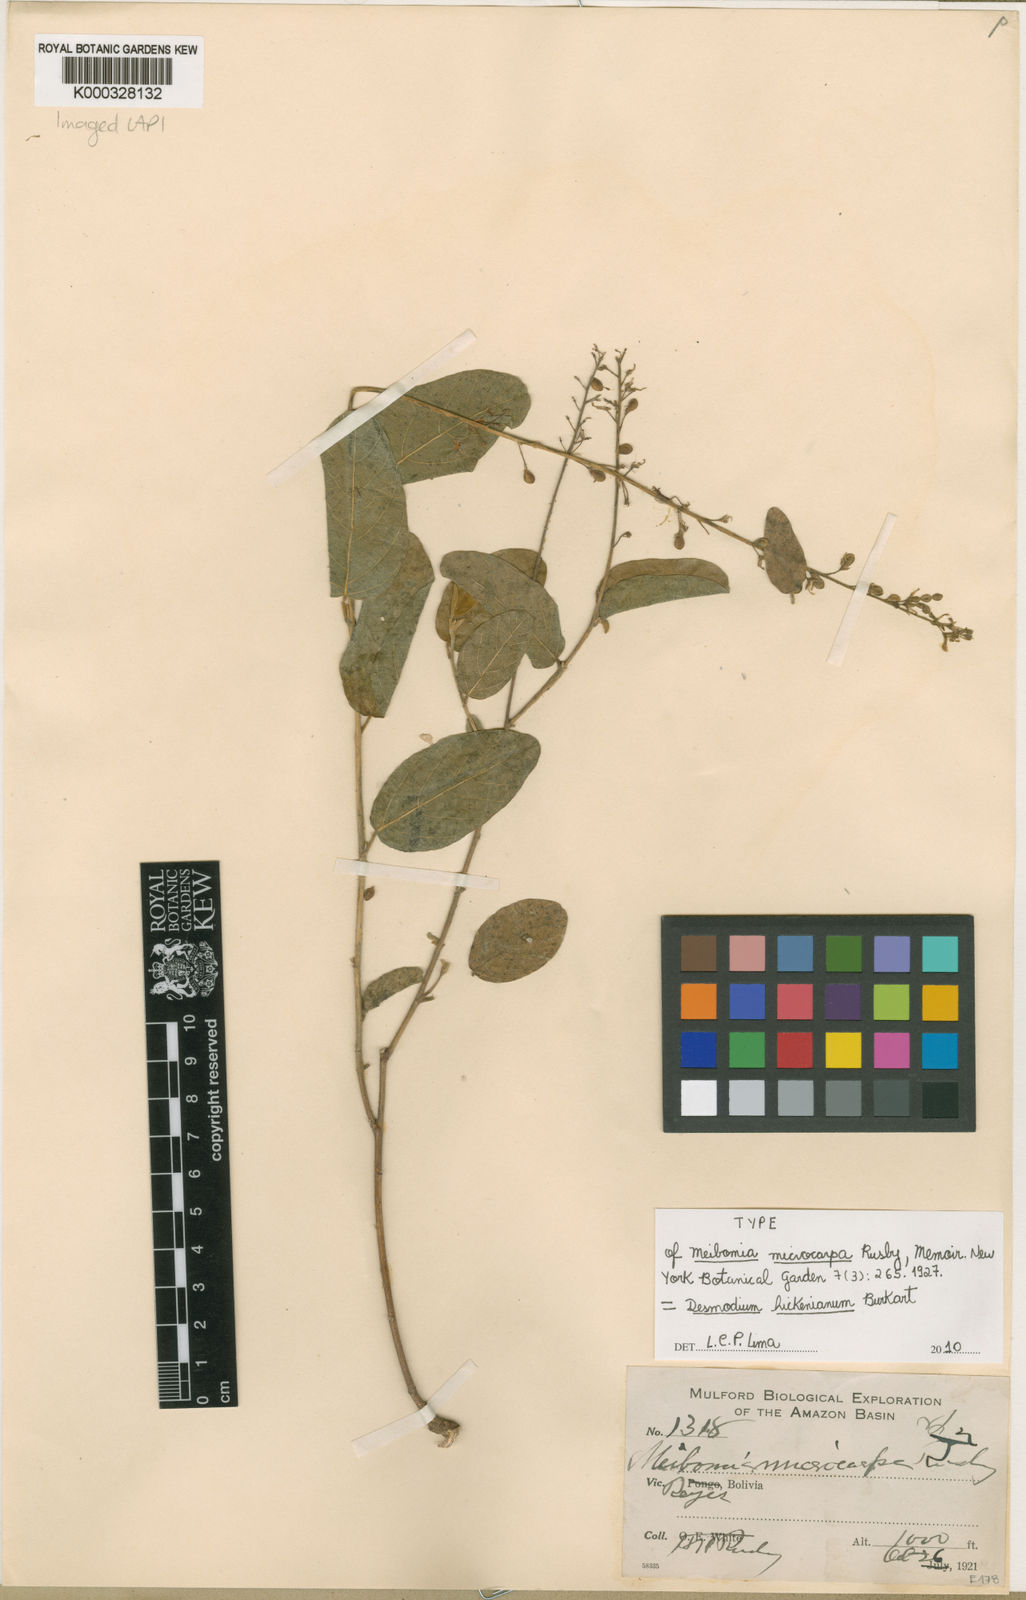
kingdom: Plantae
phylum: Tracheophyta
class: Magnoliopsida
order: Fabales
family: Fabaceae
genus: Desmodium
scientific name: Desmodium microcarpum
